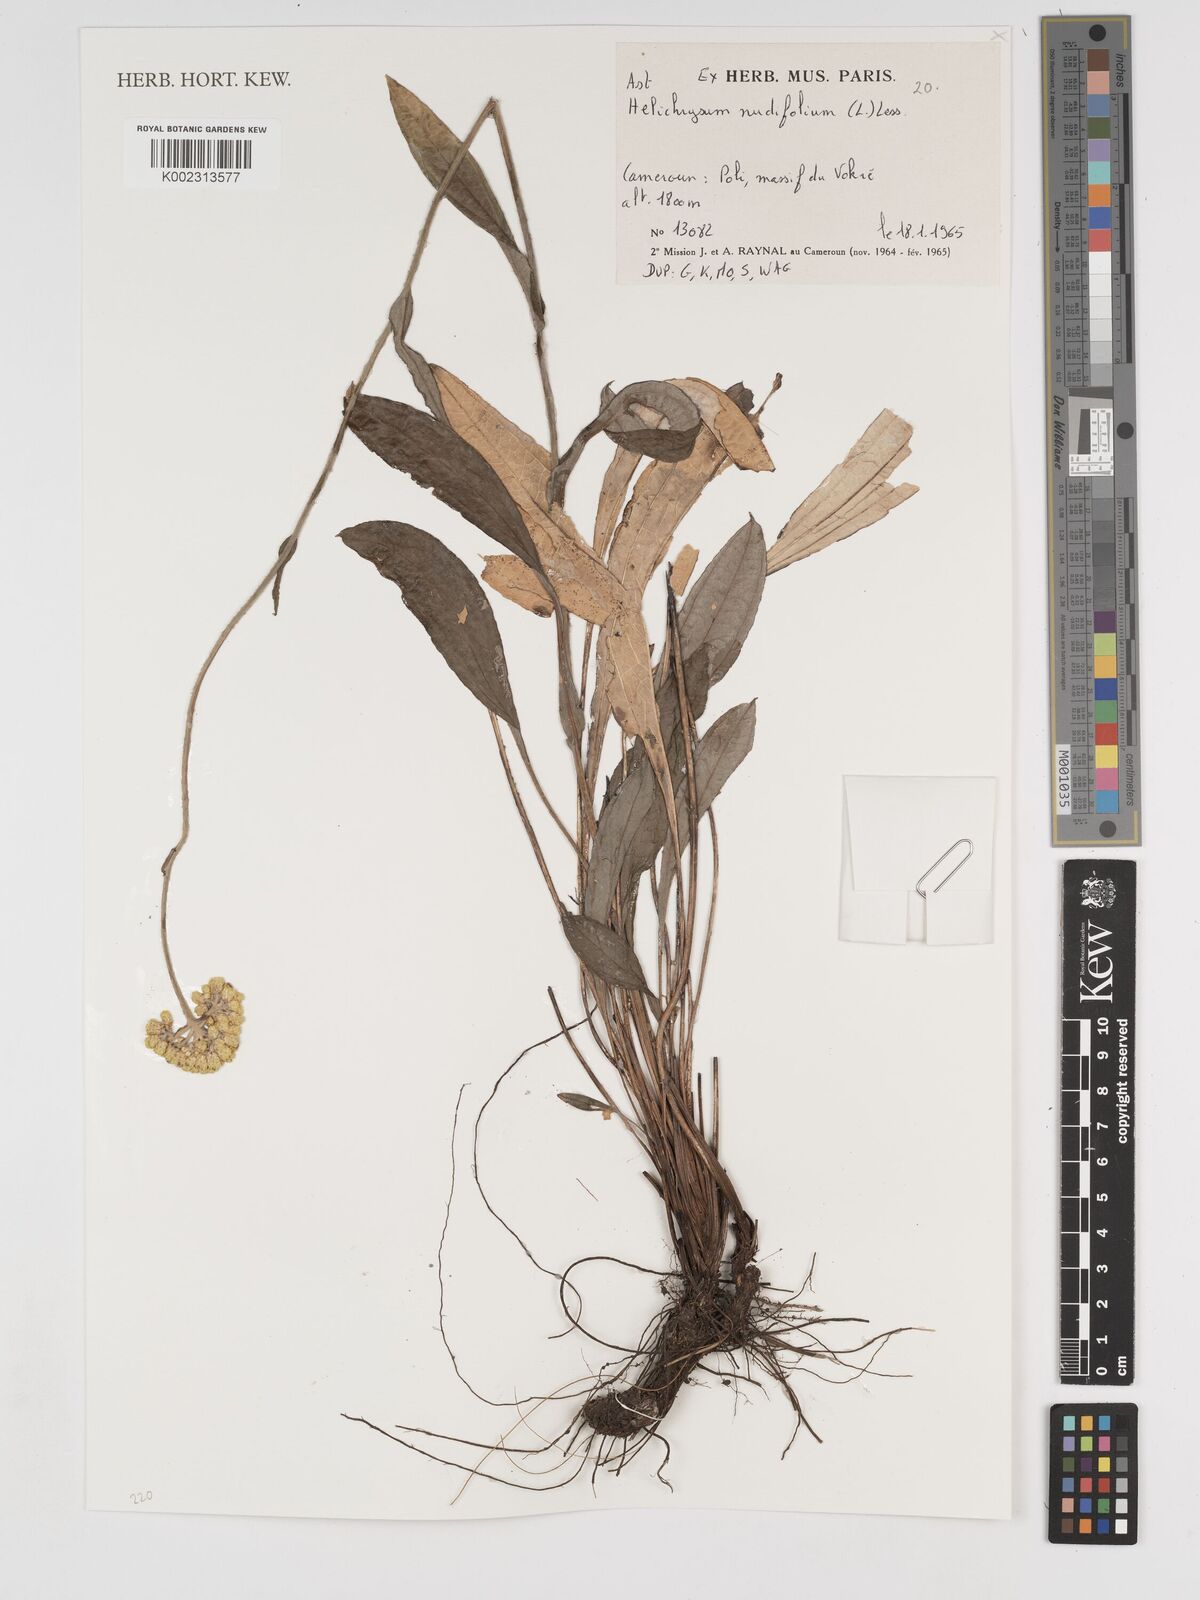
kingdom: Plantae
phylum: Tracheophyta
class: Magnoliopsida
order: Asterales
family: Asteraceae
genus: Helichrysum
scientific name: Helichrysum nudifolium
